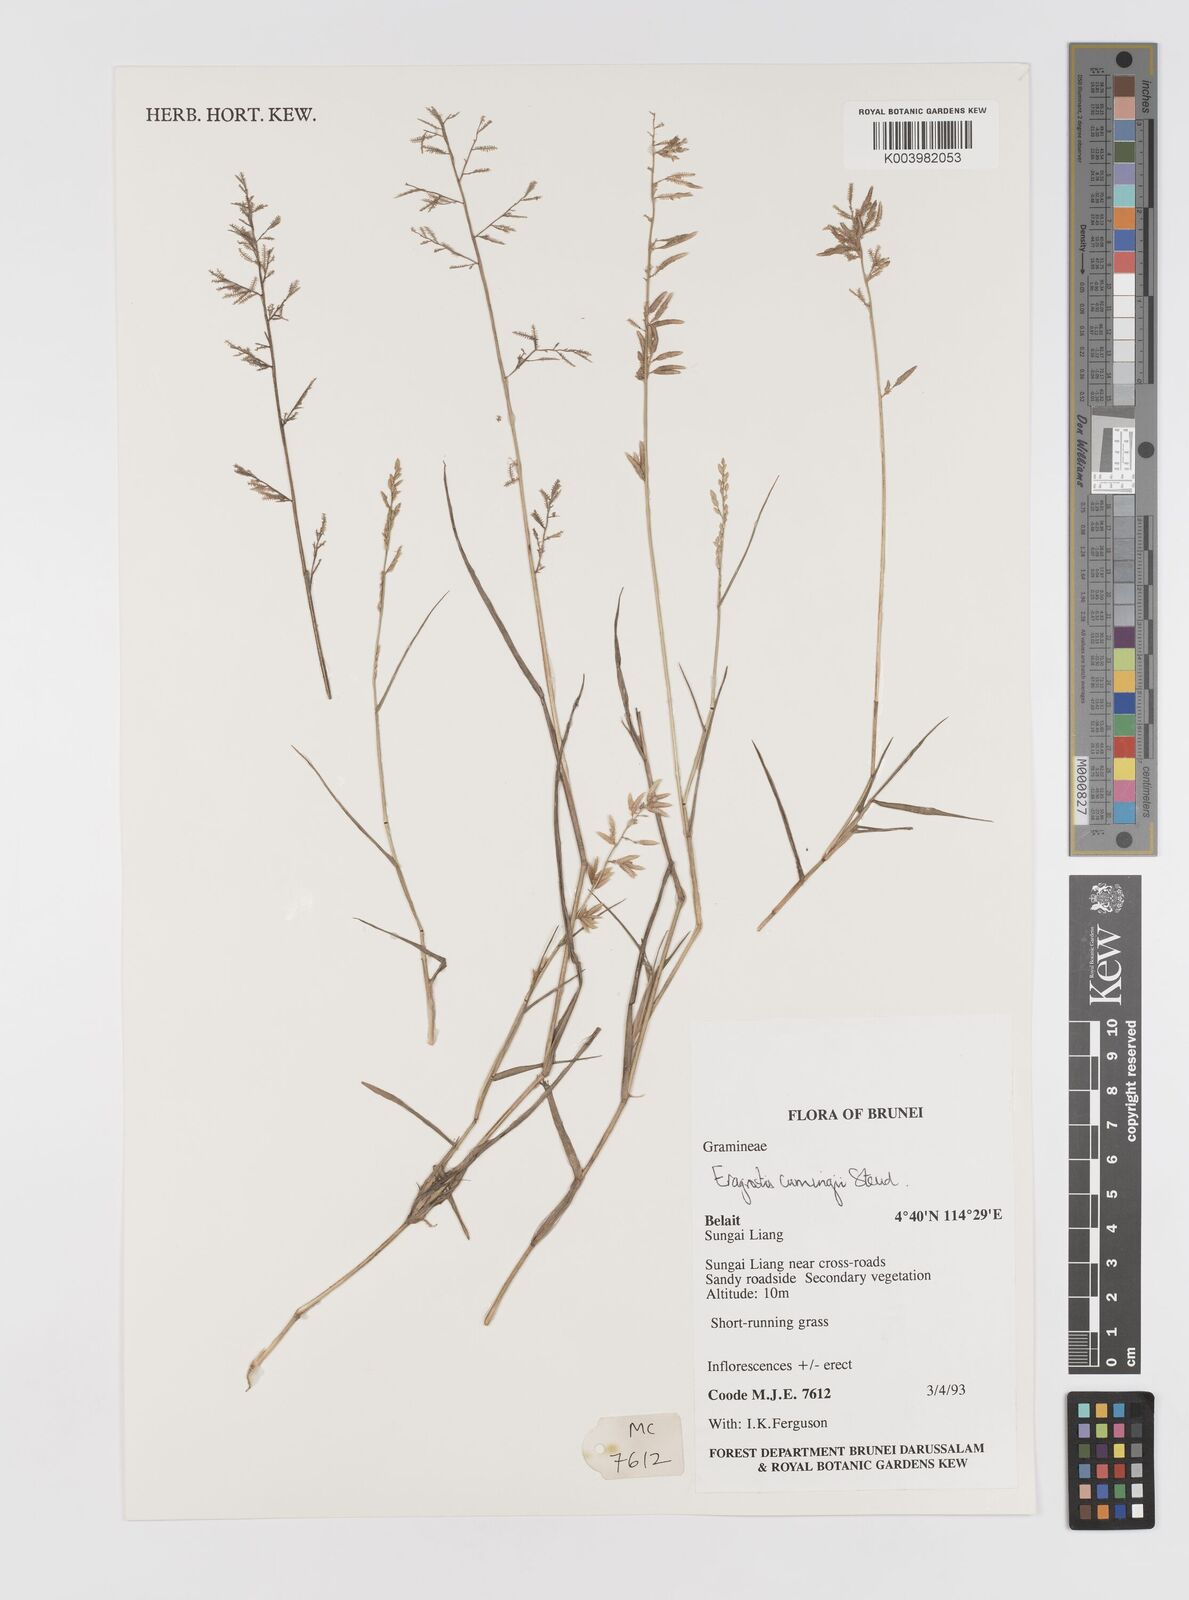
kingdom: Plantae
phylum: Tracheophyta
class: Liliopsida
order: Poales
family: Poaceae
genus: Eragrostis
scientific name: Eragrostis cumingii
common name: Cuming's lovegrass
